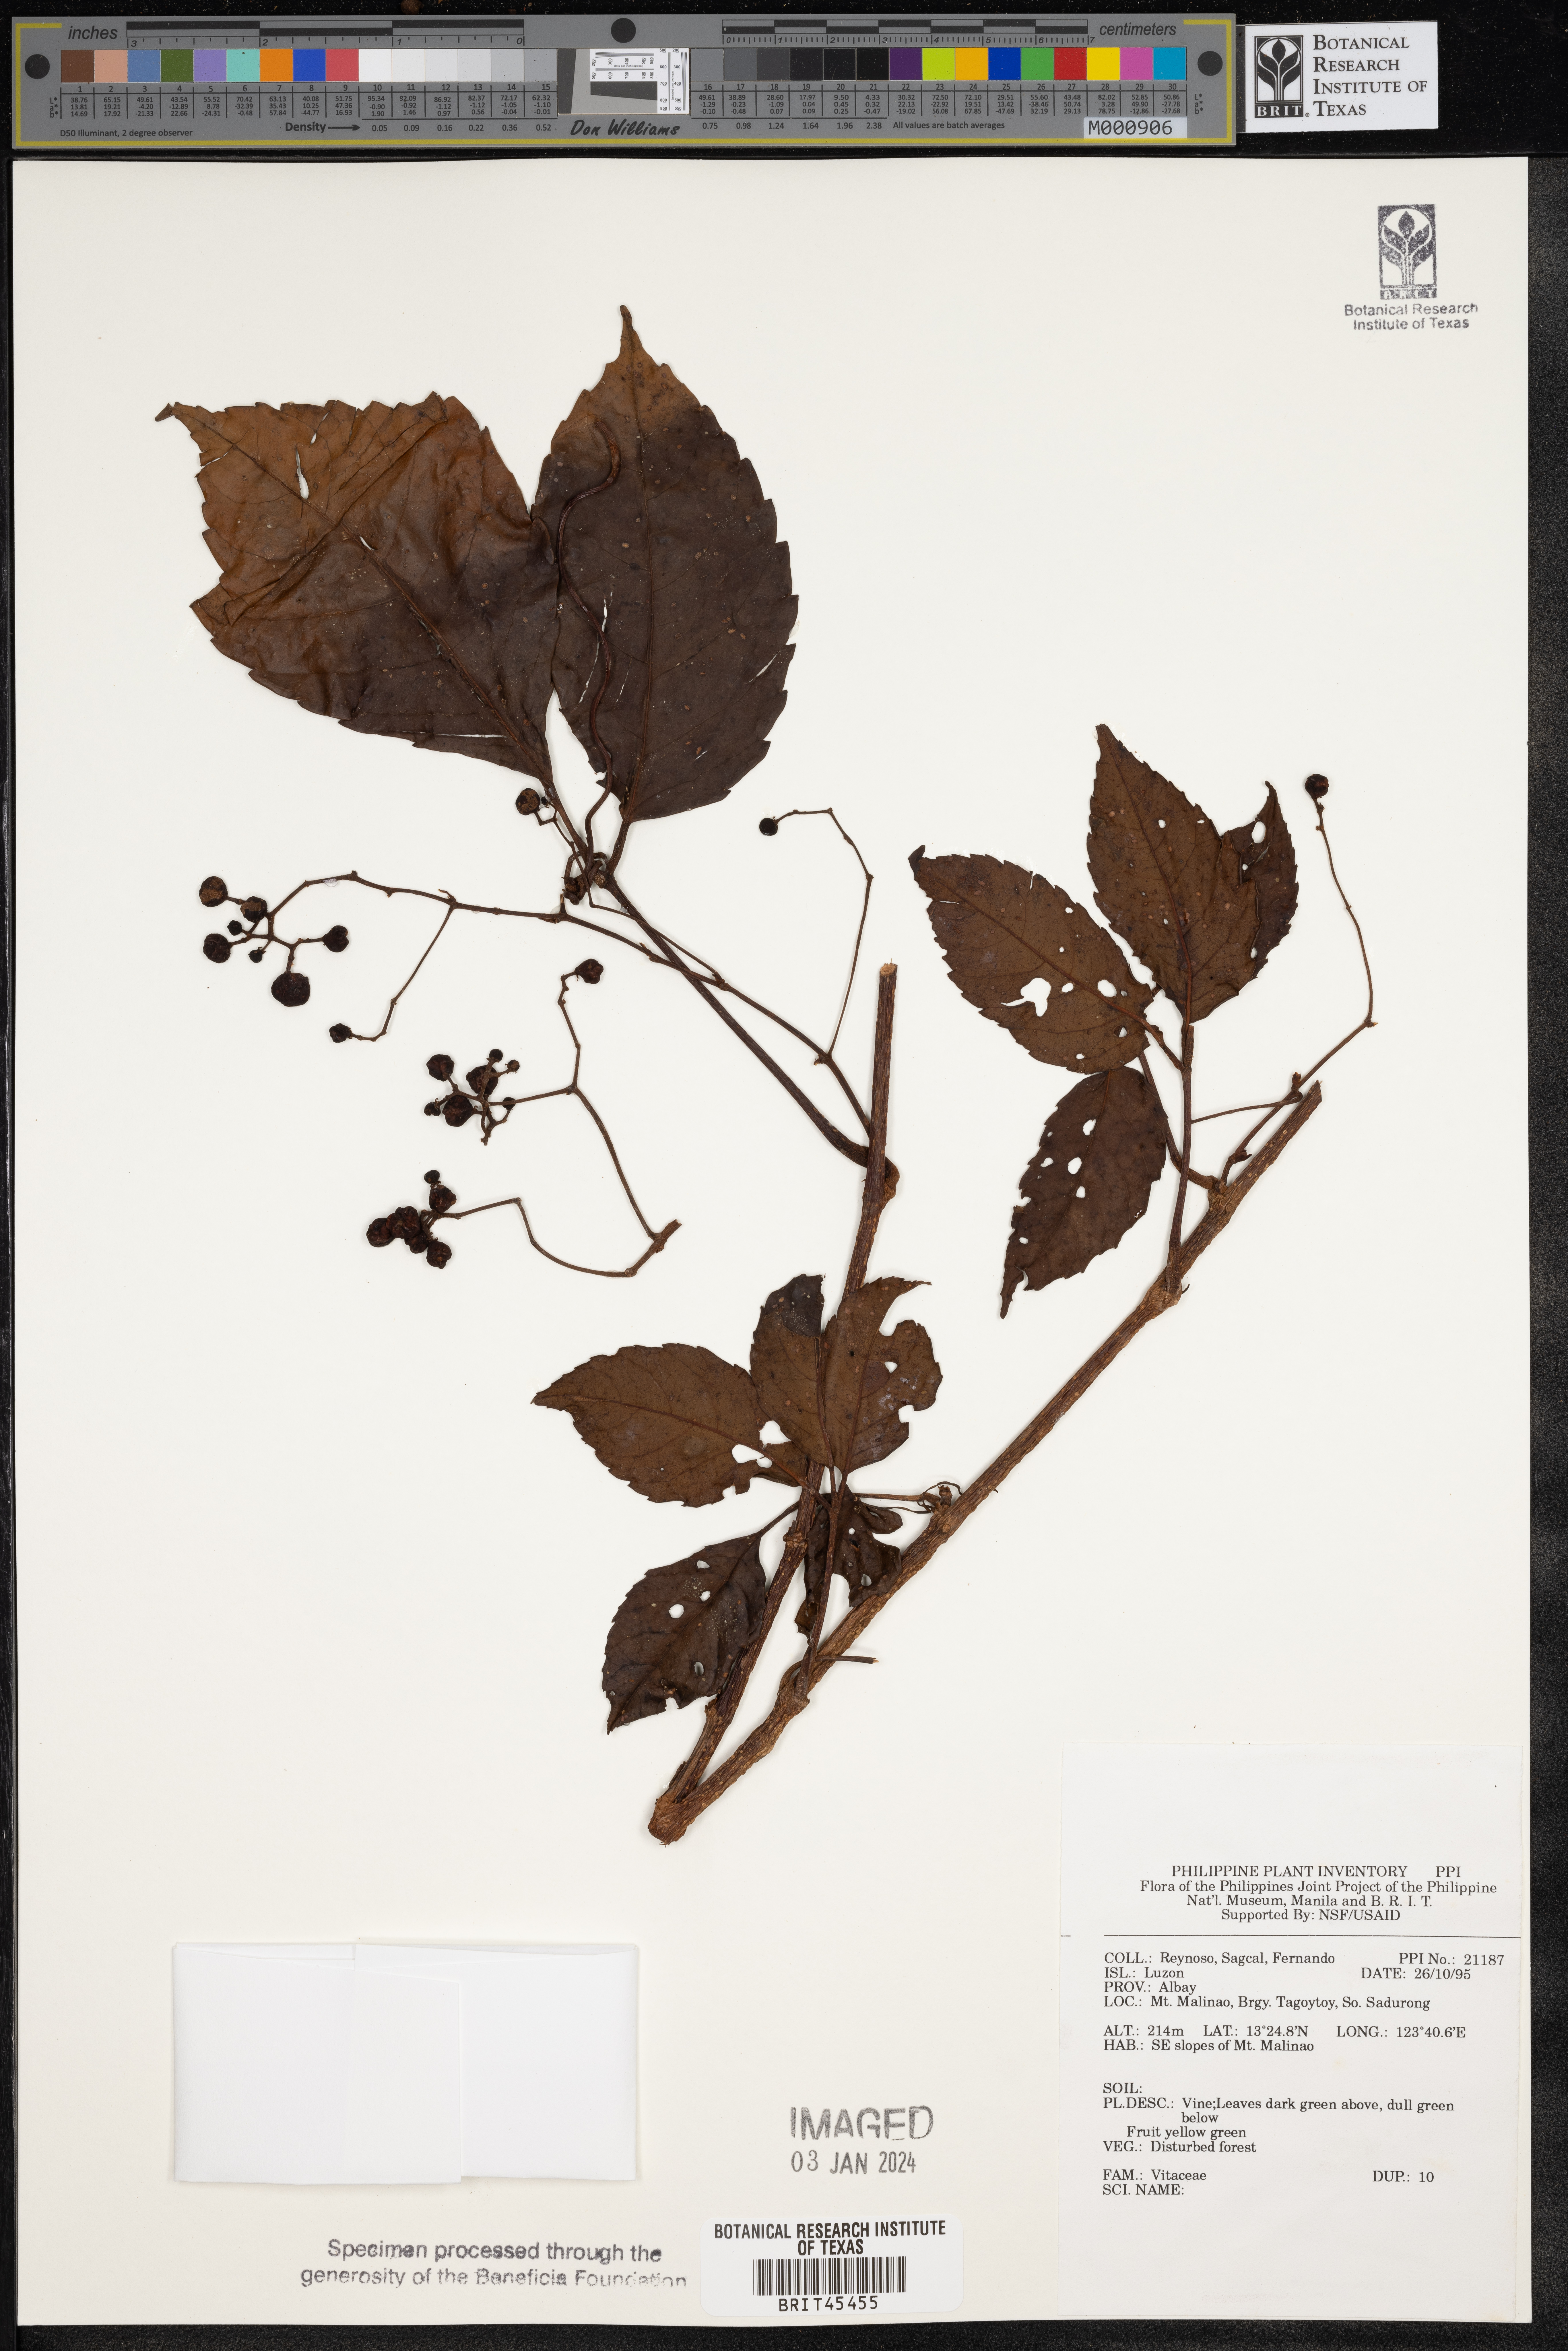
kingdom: Plantae
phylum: Tracheophyta
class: Magnoliopsida
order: Vitales
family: Vitaceae
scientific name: Vitaceae
